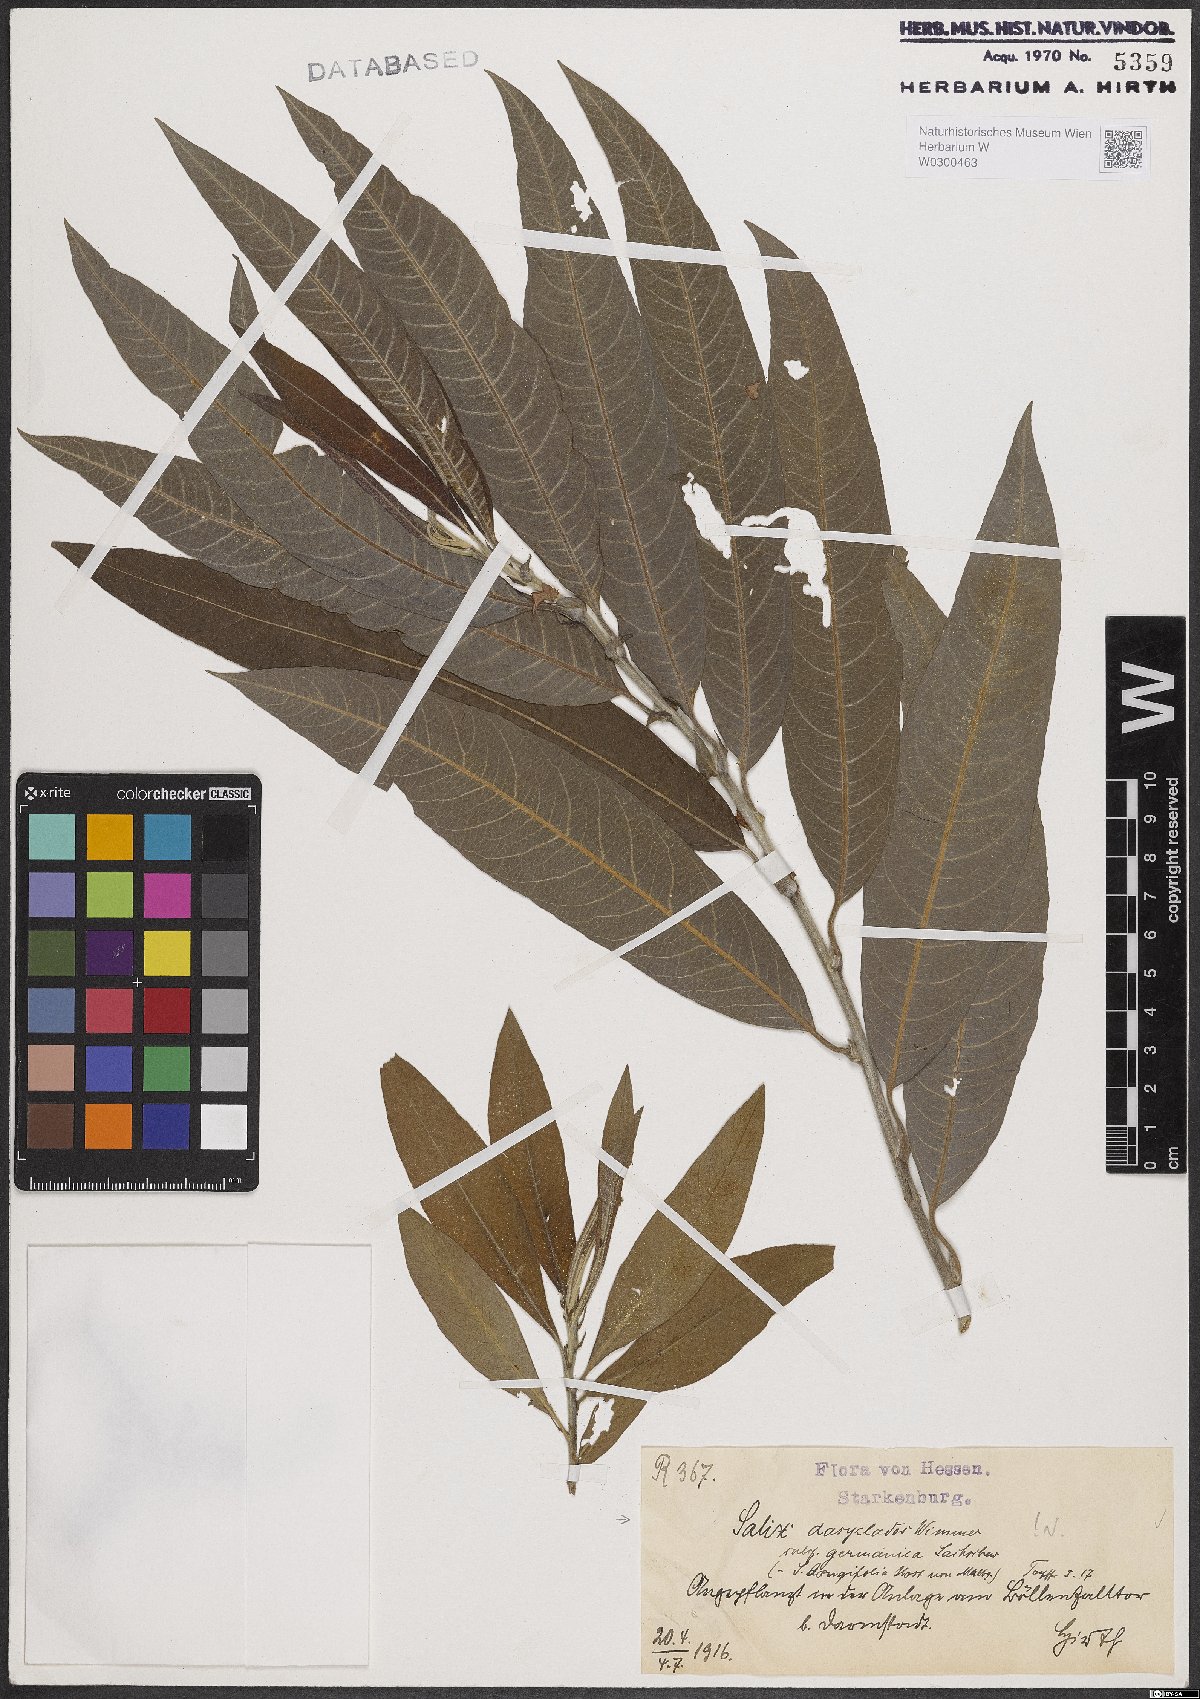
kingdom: Plantae
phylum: Tracheophyta
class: Magnoliopsida
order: Malpighiales
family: Salicaceae
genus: Salix
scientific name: Salix gmelinii
